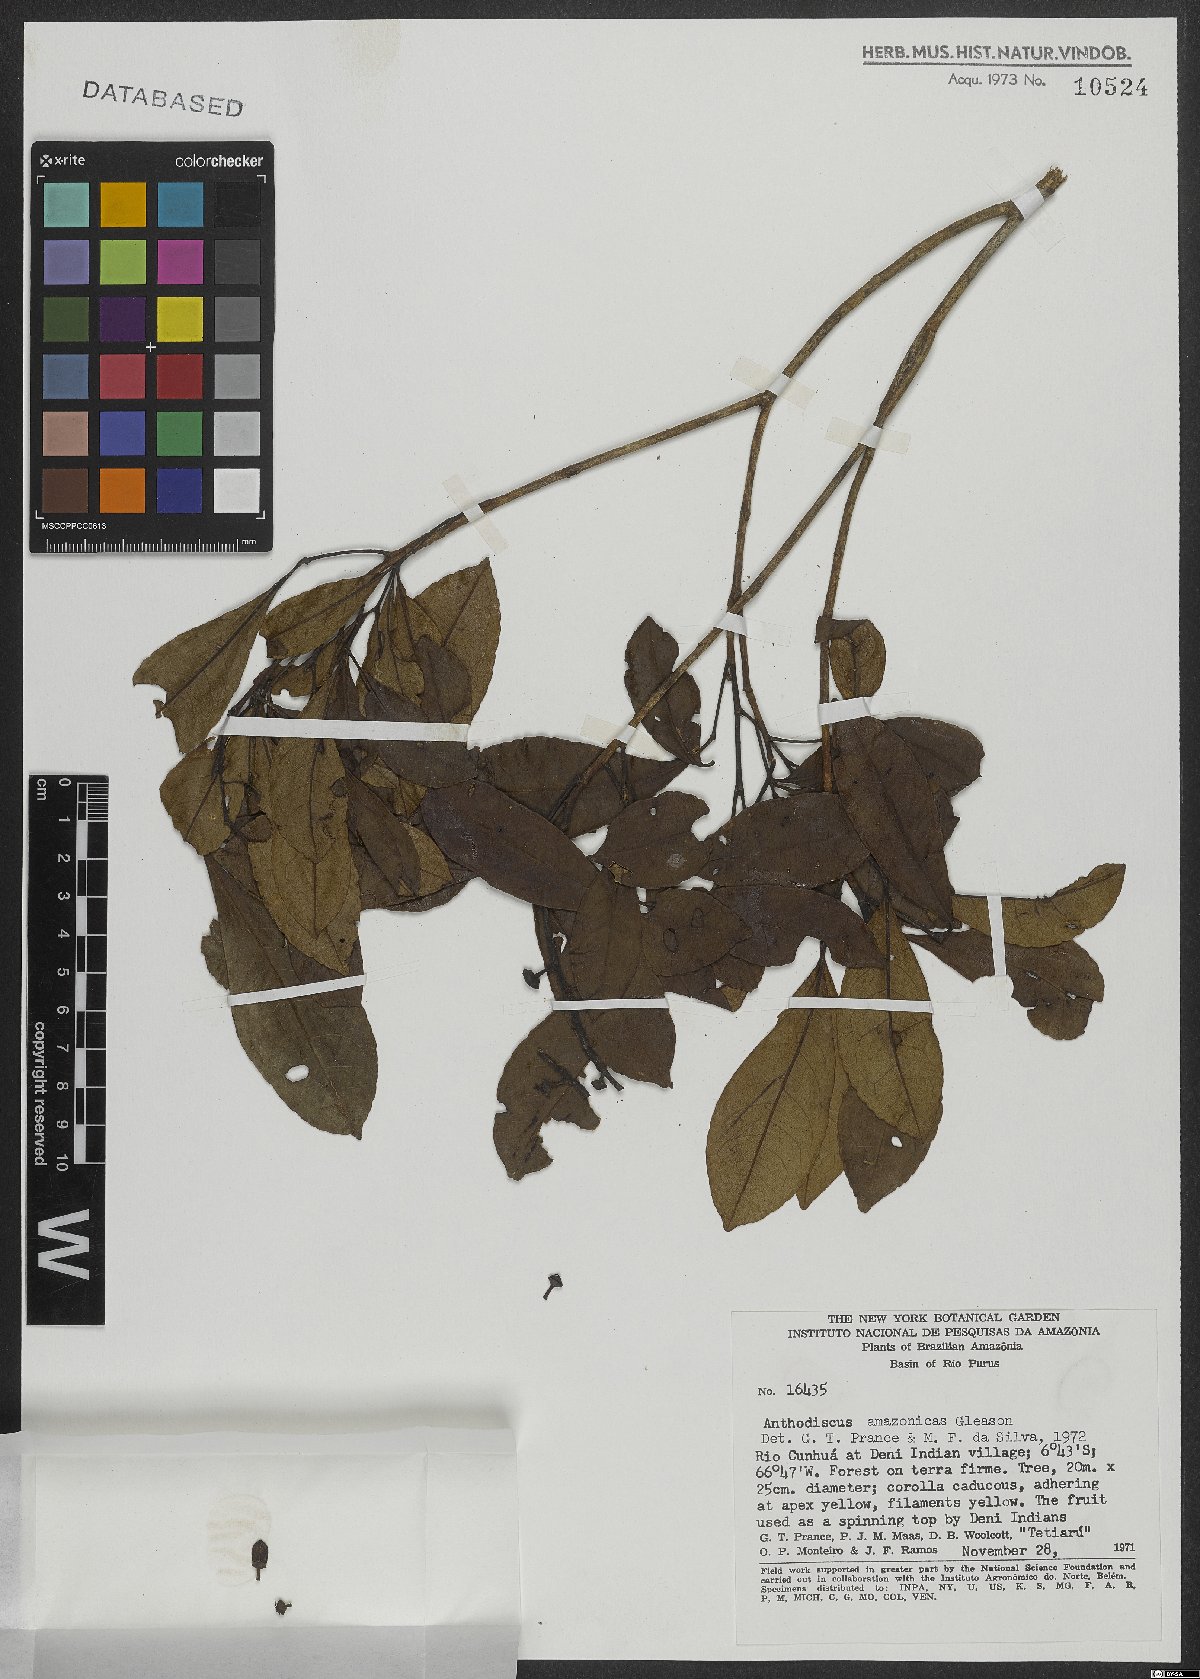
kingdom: Plantae
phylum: Tracheophyta
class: Magnoliopsida
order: Malpighiales
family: Caryocaraceae
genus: Anthodiscus
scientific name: Anthodiscus amazonicus
